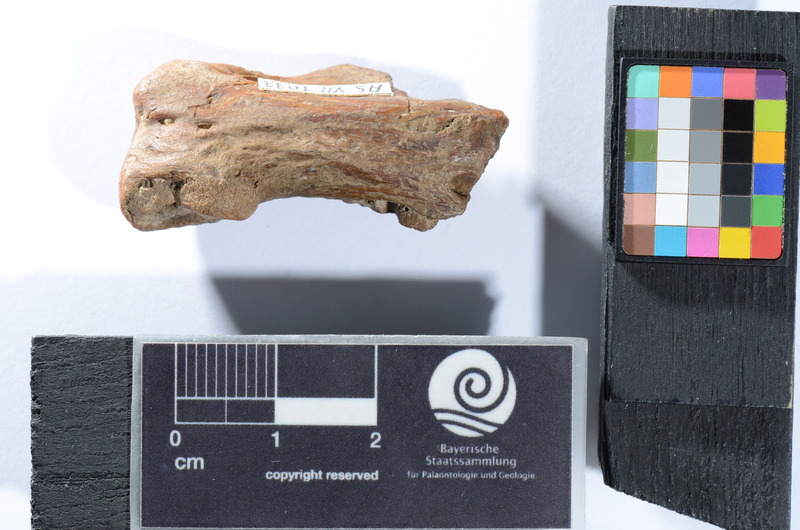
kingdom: Animalia
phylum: Chordata
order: Cypriniformes
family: Cyprinidae
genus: Capitodus
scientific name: Capitodus
